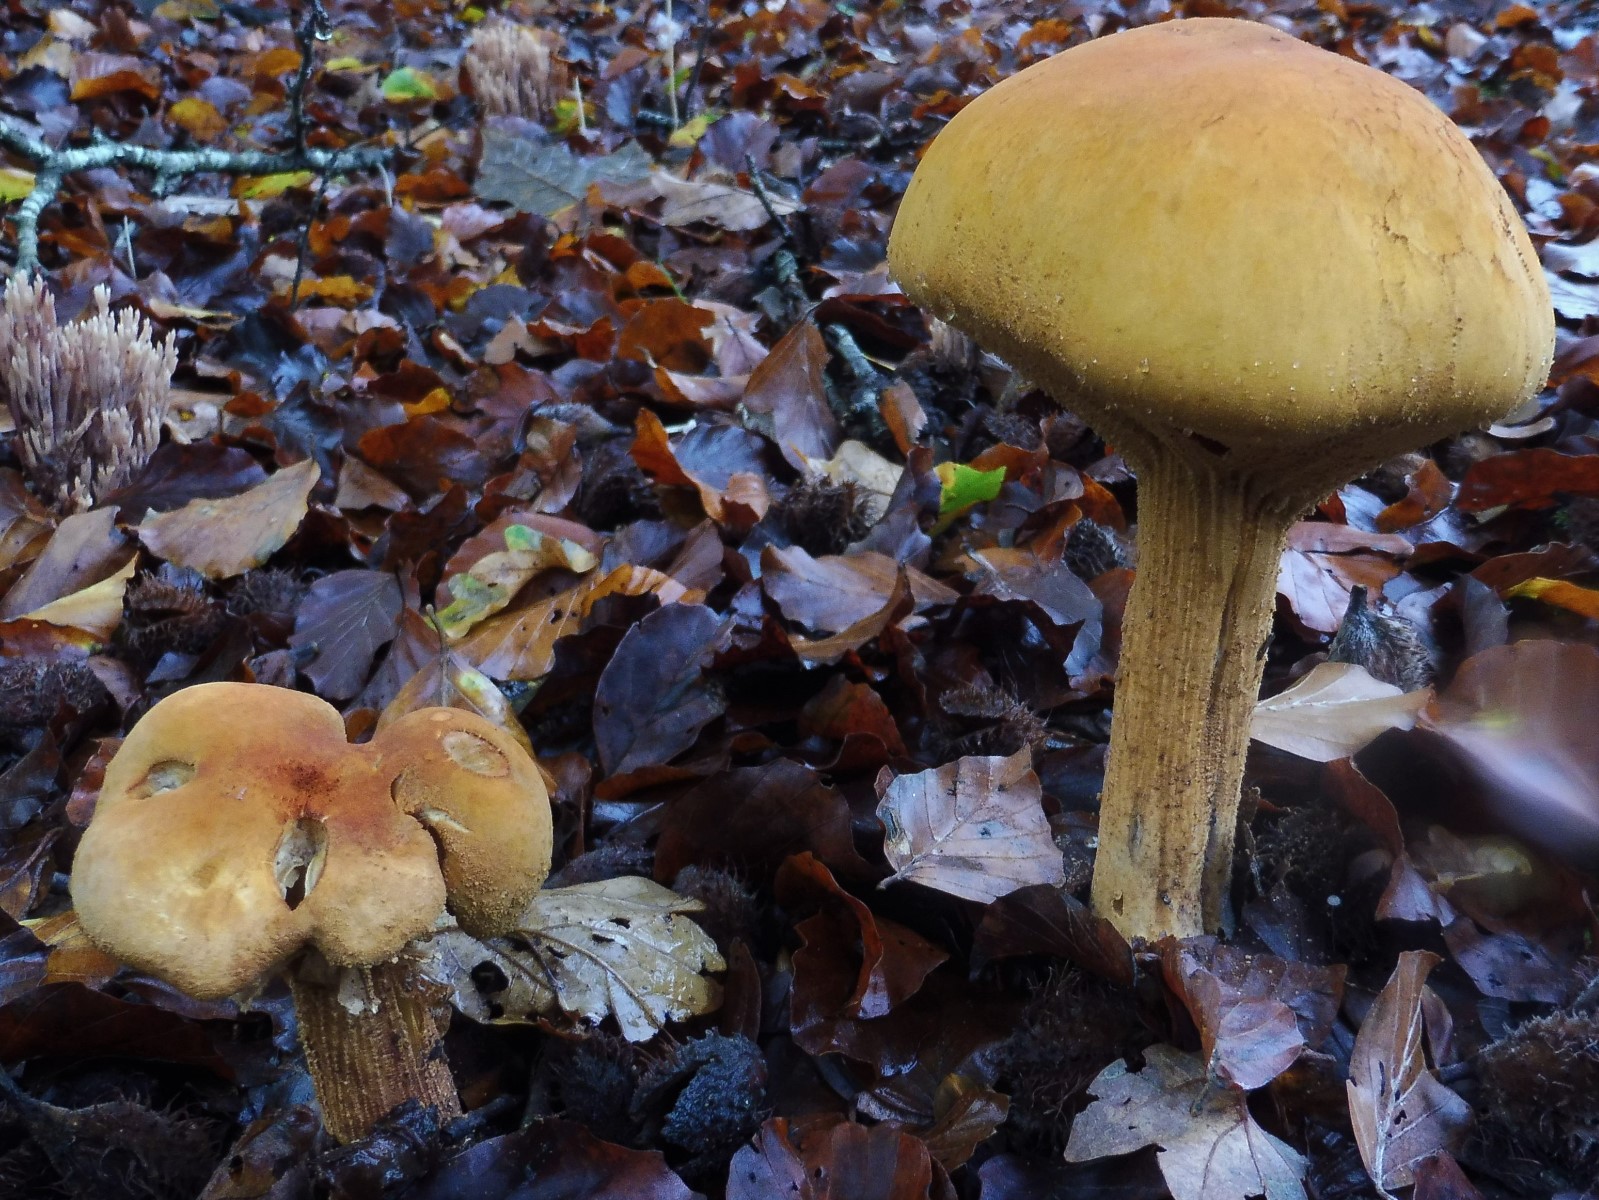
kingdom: Fungi
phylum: Basidiomycota
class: Agaricomycetes
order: Agaricales
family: Tricholomataceae
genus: Phaeolepiota
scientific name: Phaeolepiota aurea
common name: gyldenhat
